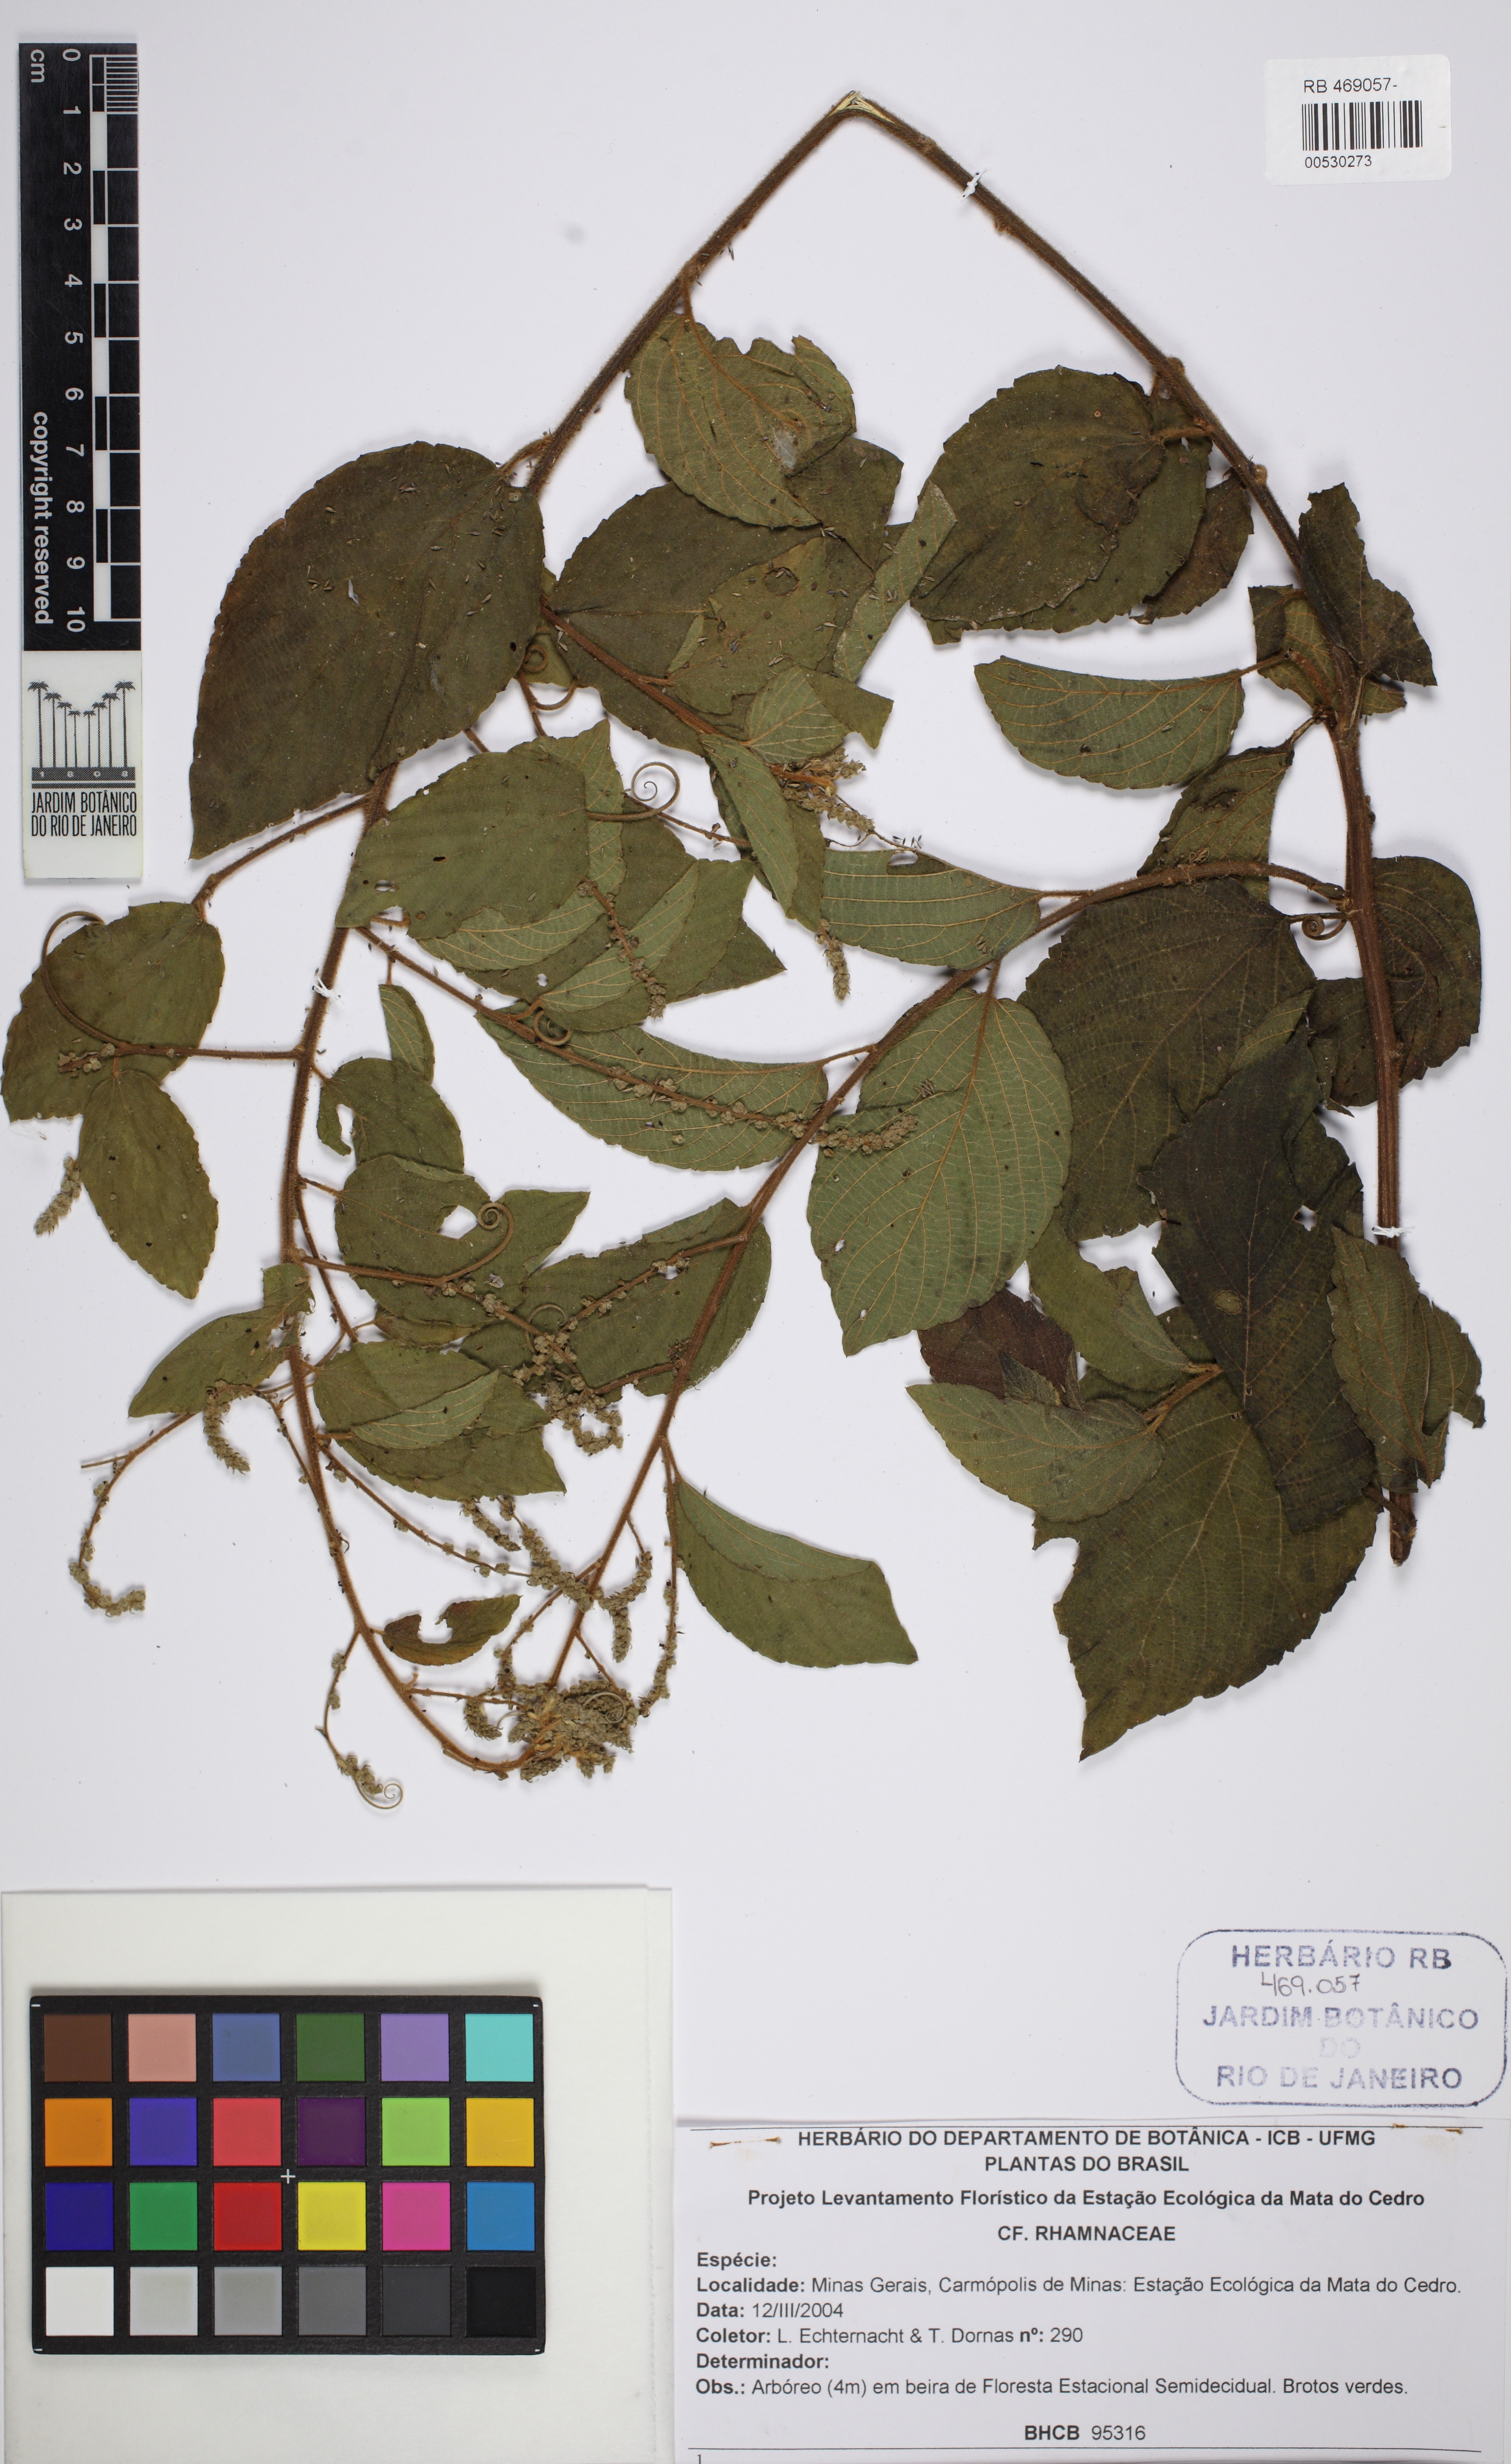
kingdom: Plantae
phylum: Tracheophyta
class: Magnoliopsida
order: Rosales
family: Rhamnaceae
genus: Gouania
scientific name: Gouania
